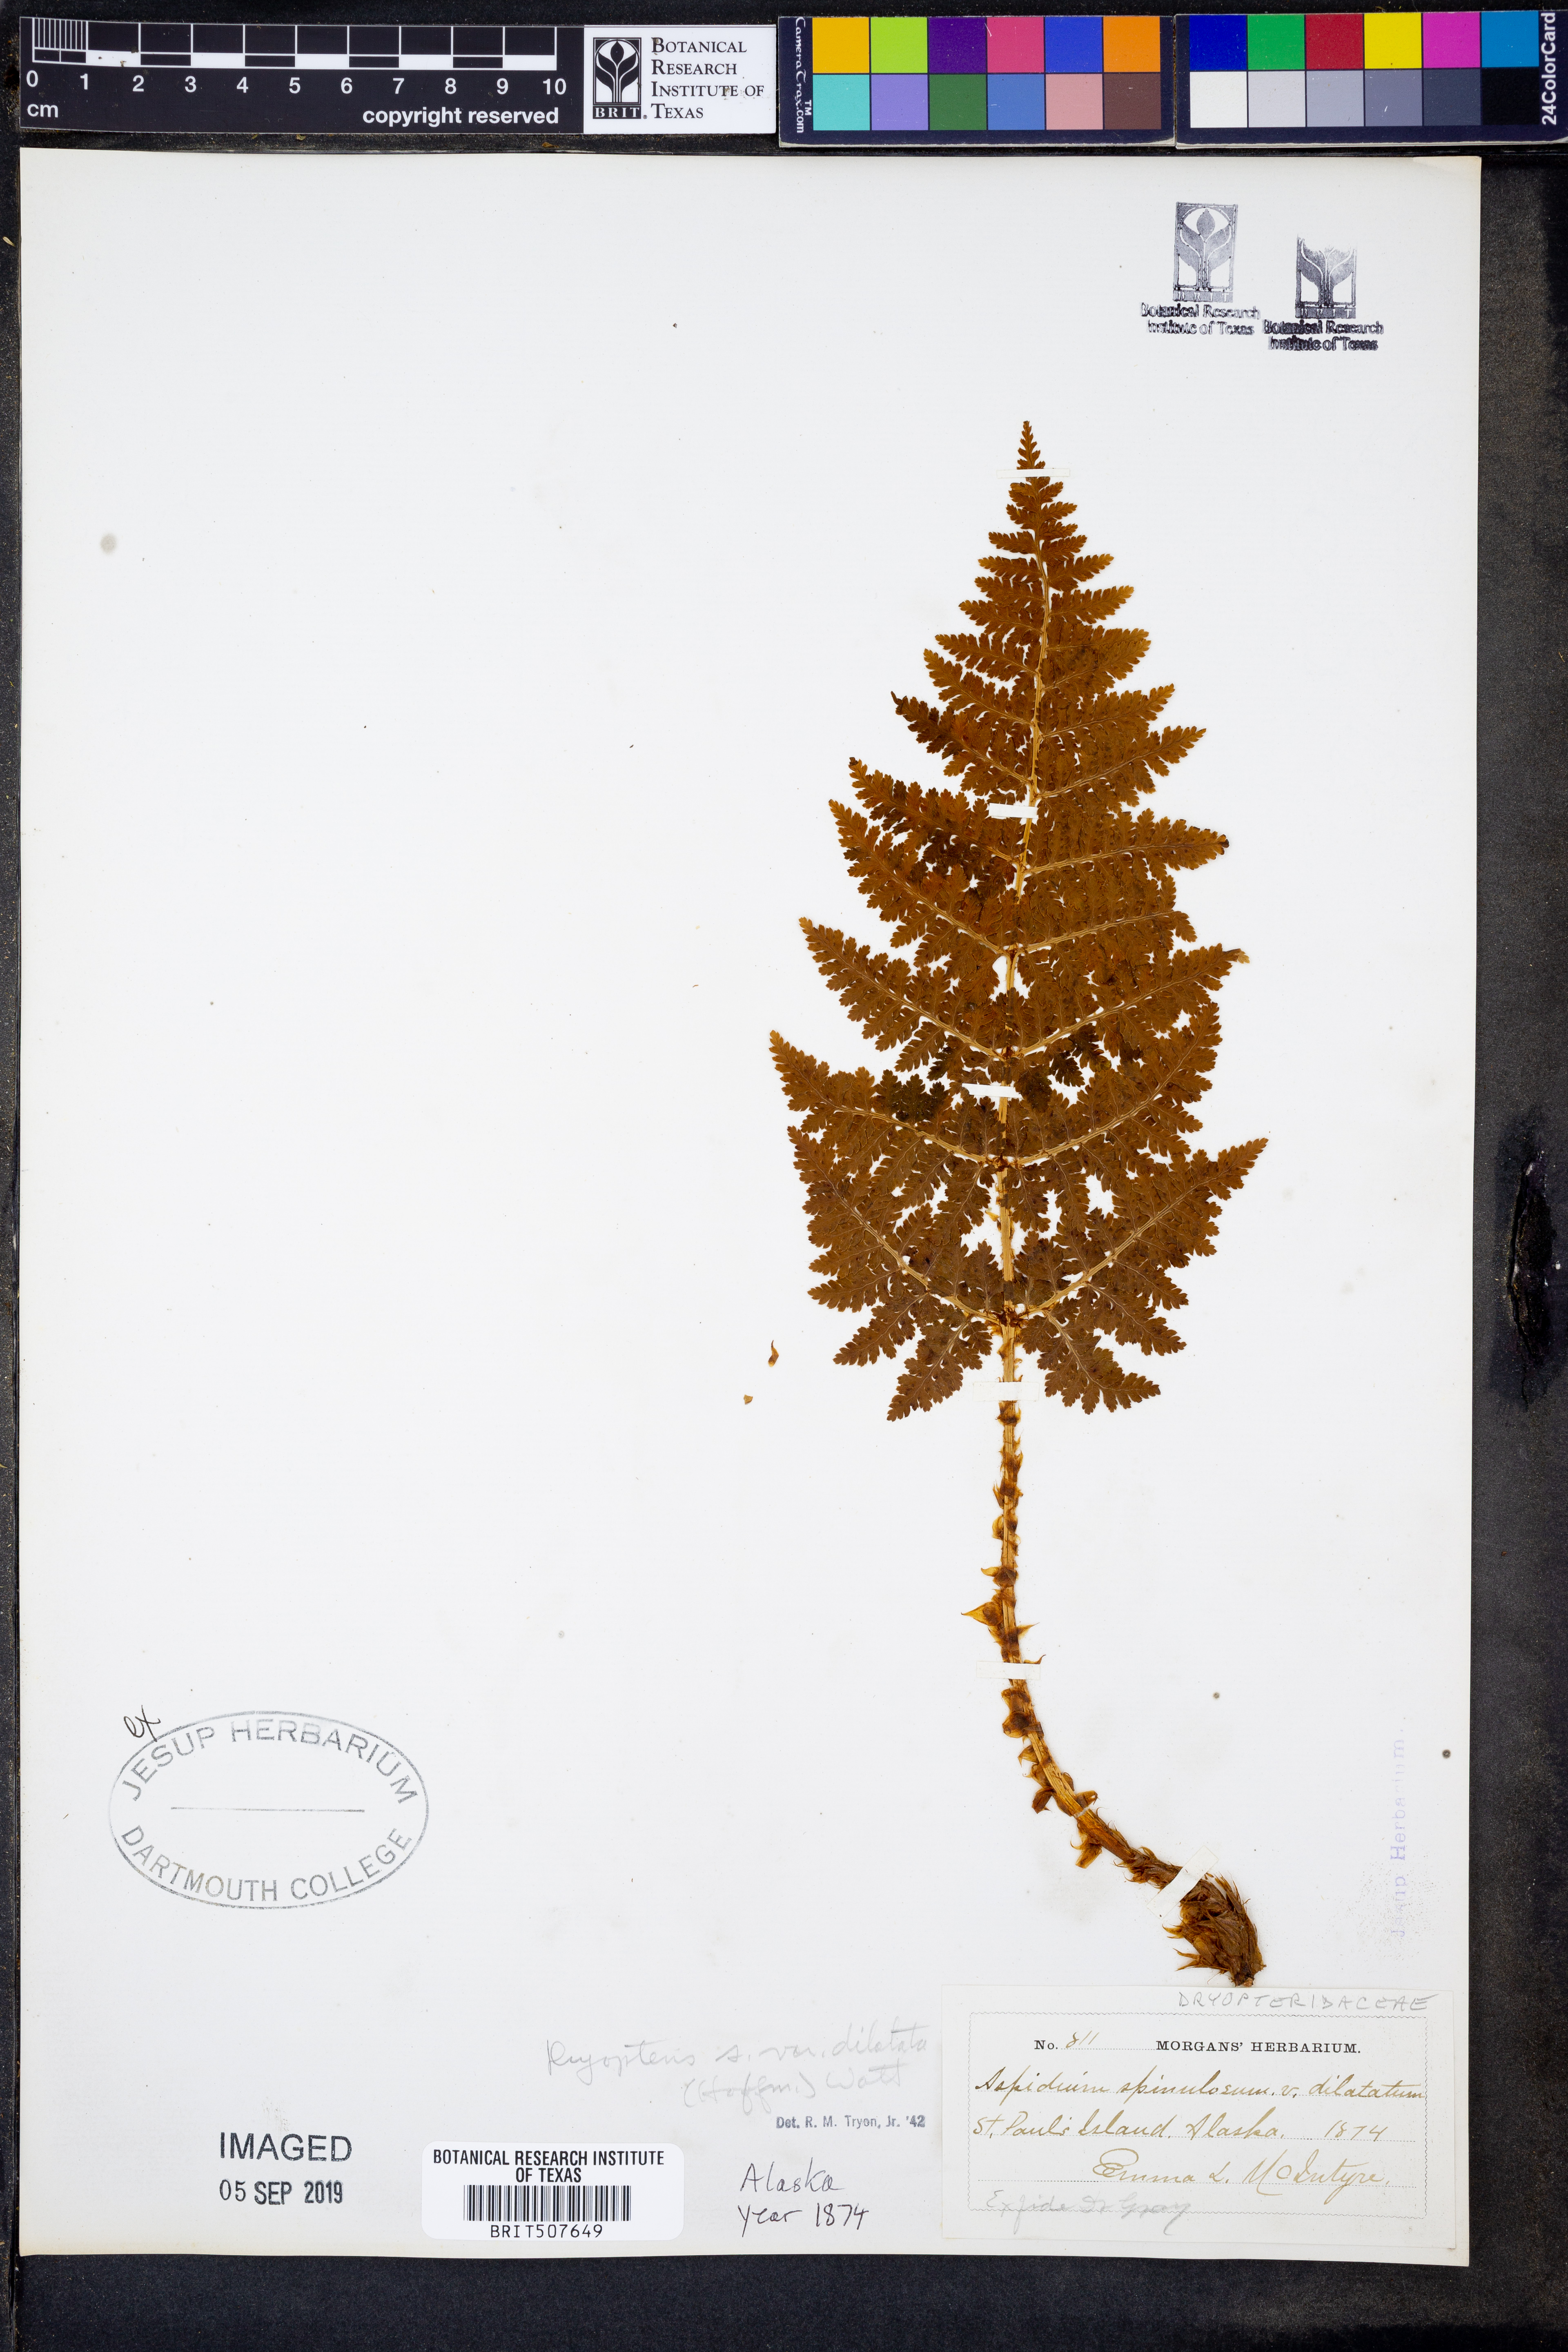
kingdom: Plantae
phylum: Tracheophyta
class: Polypodiopsida
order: Polypodiales
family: Dryopteridaceae
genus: Dryopteris
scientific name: Dryopteris dilatata
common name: Broad buckler-fern
